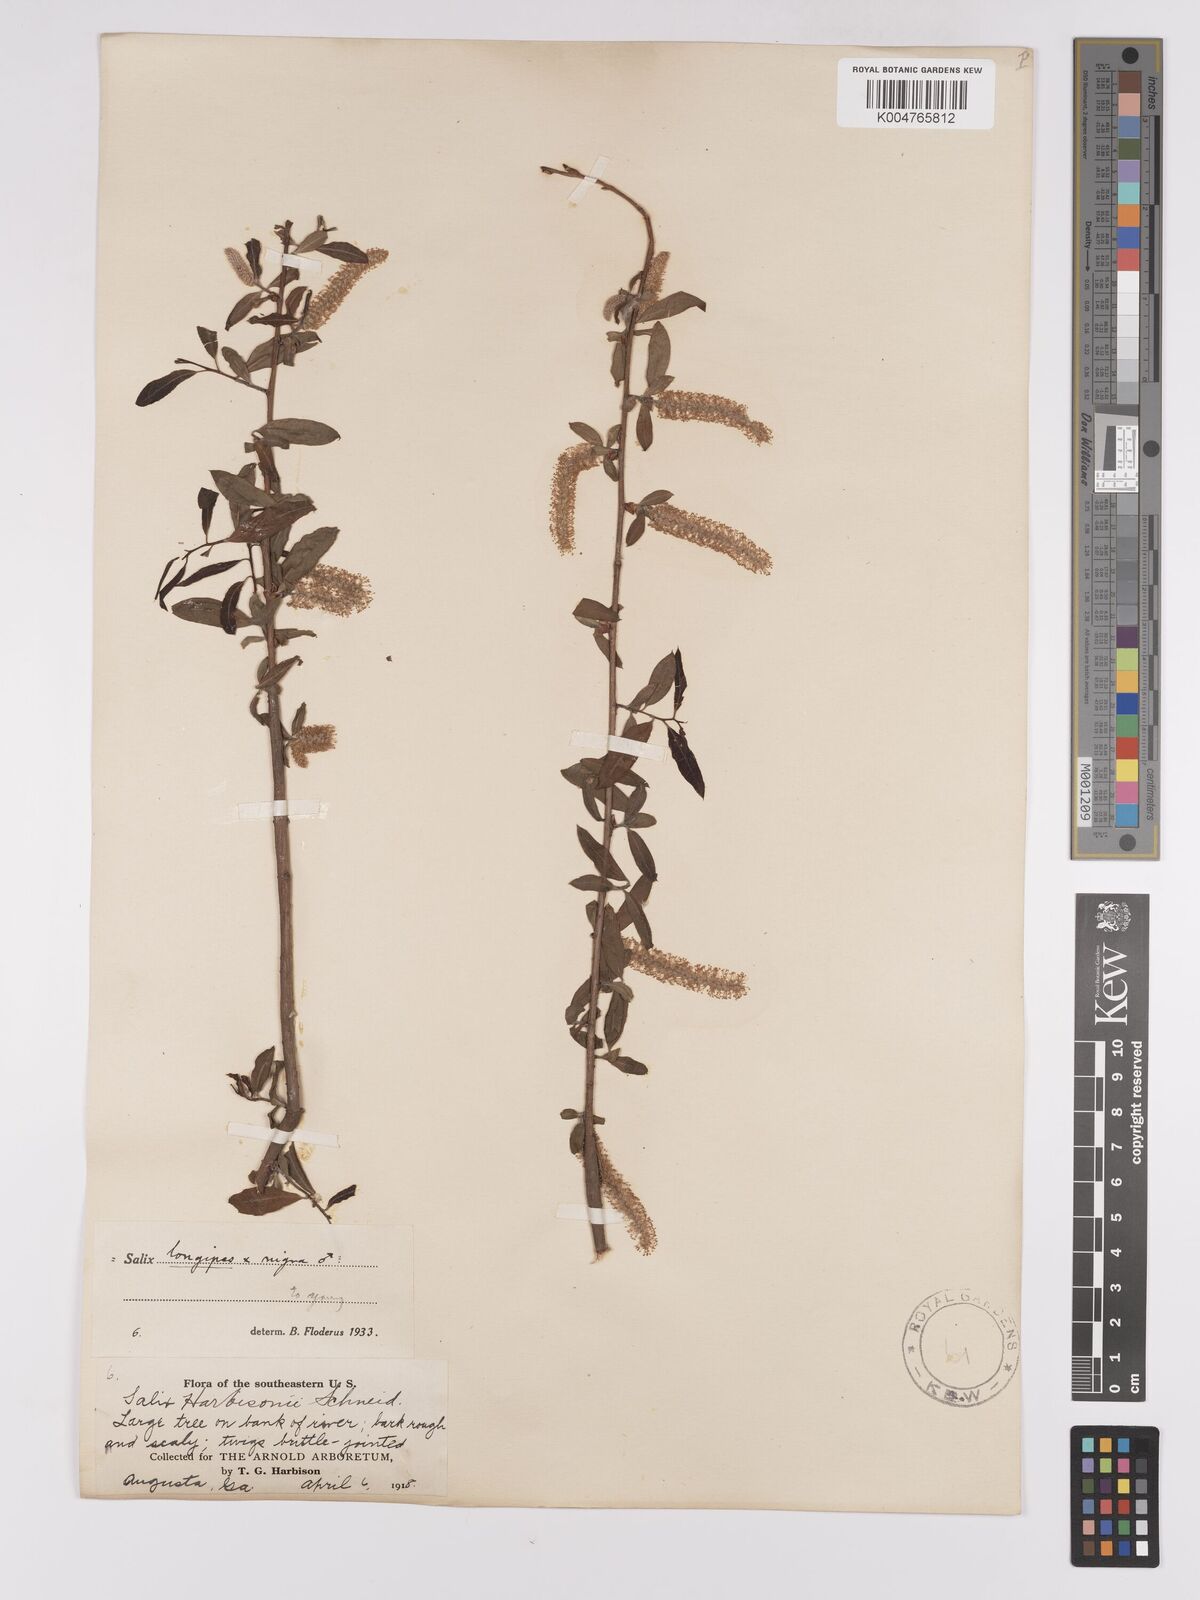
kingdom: Plantae
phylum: Tracheophyta
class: Magnoliopsida
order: Malpighiales
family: Salicaceae
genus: Salix
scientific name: Salix fruticulosa
